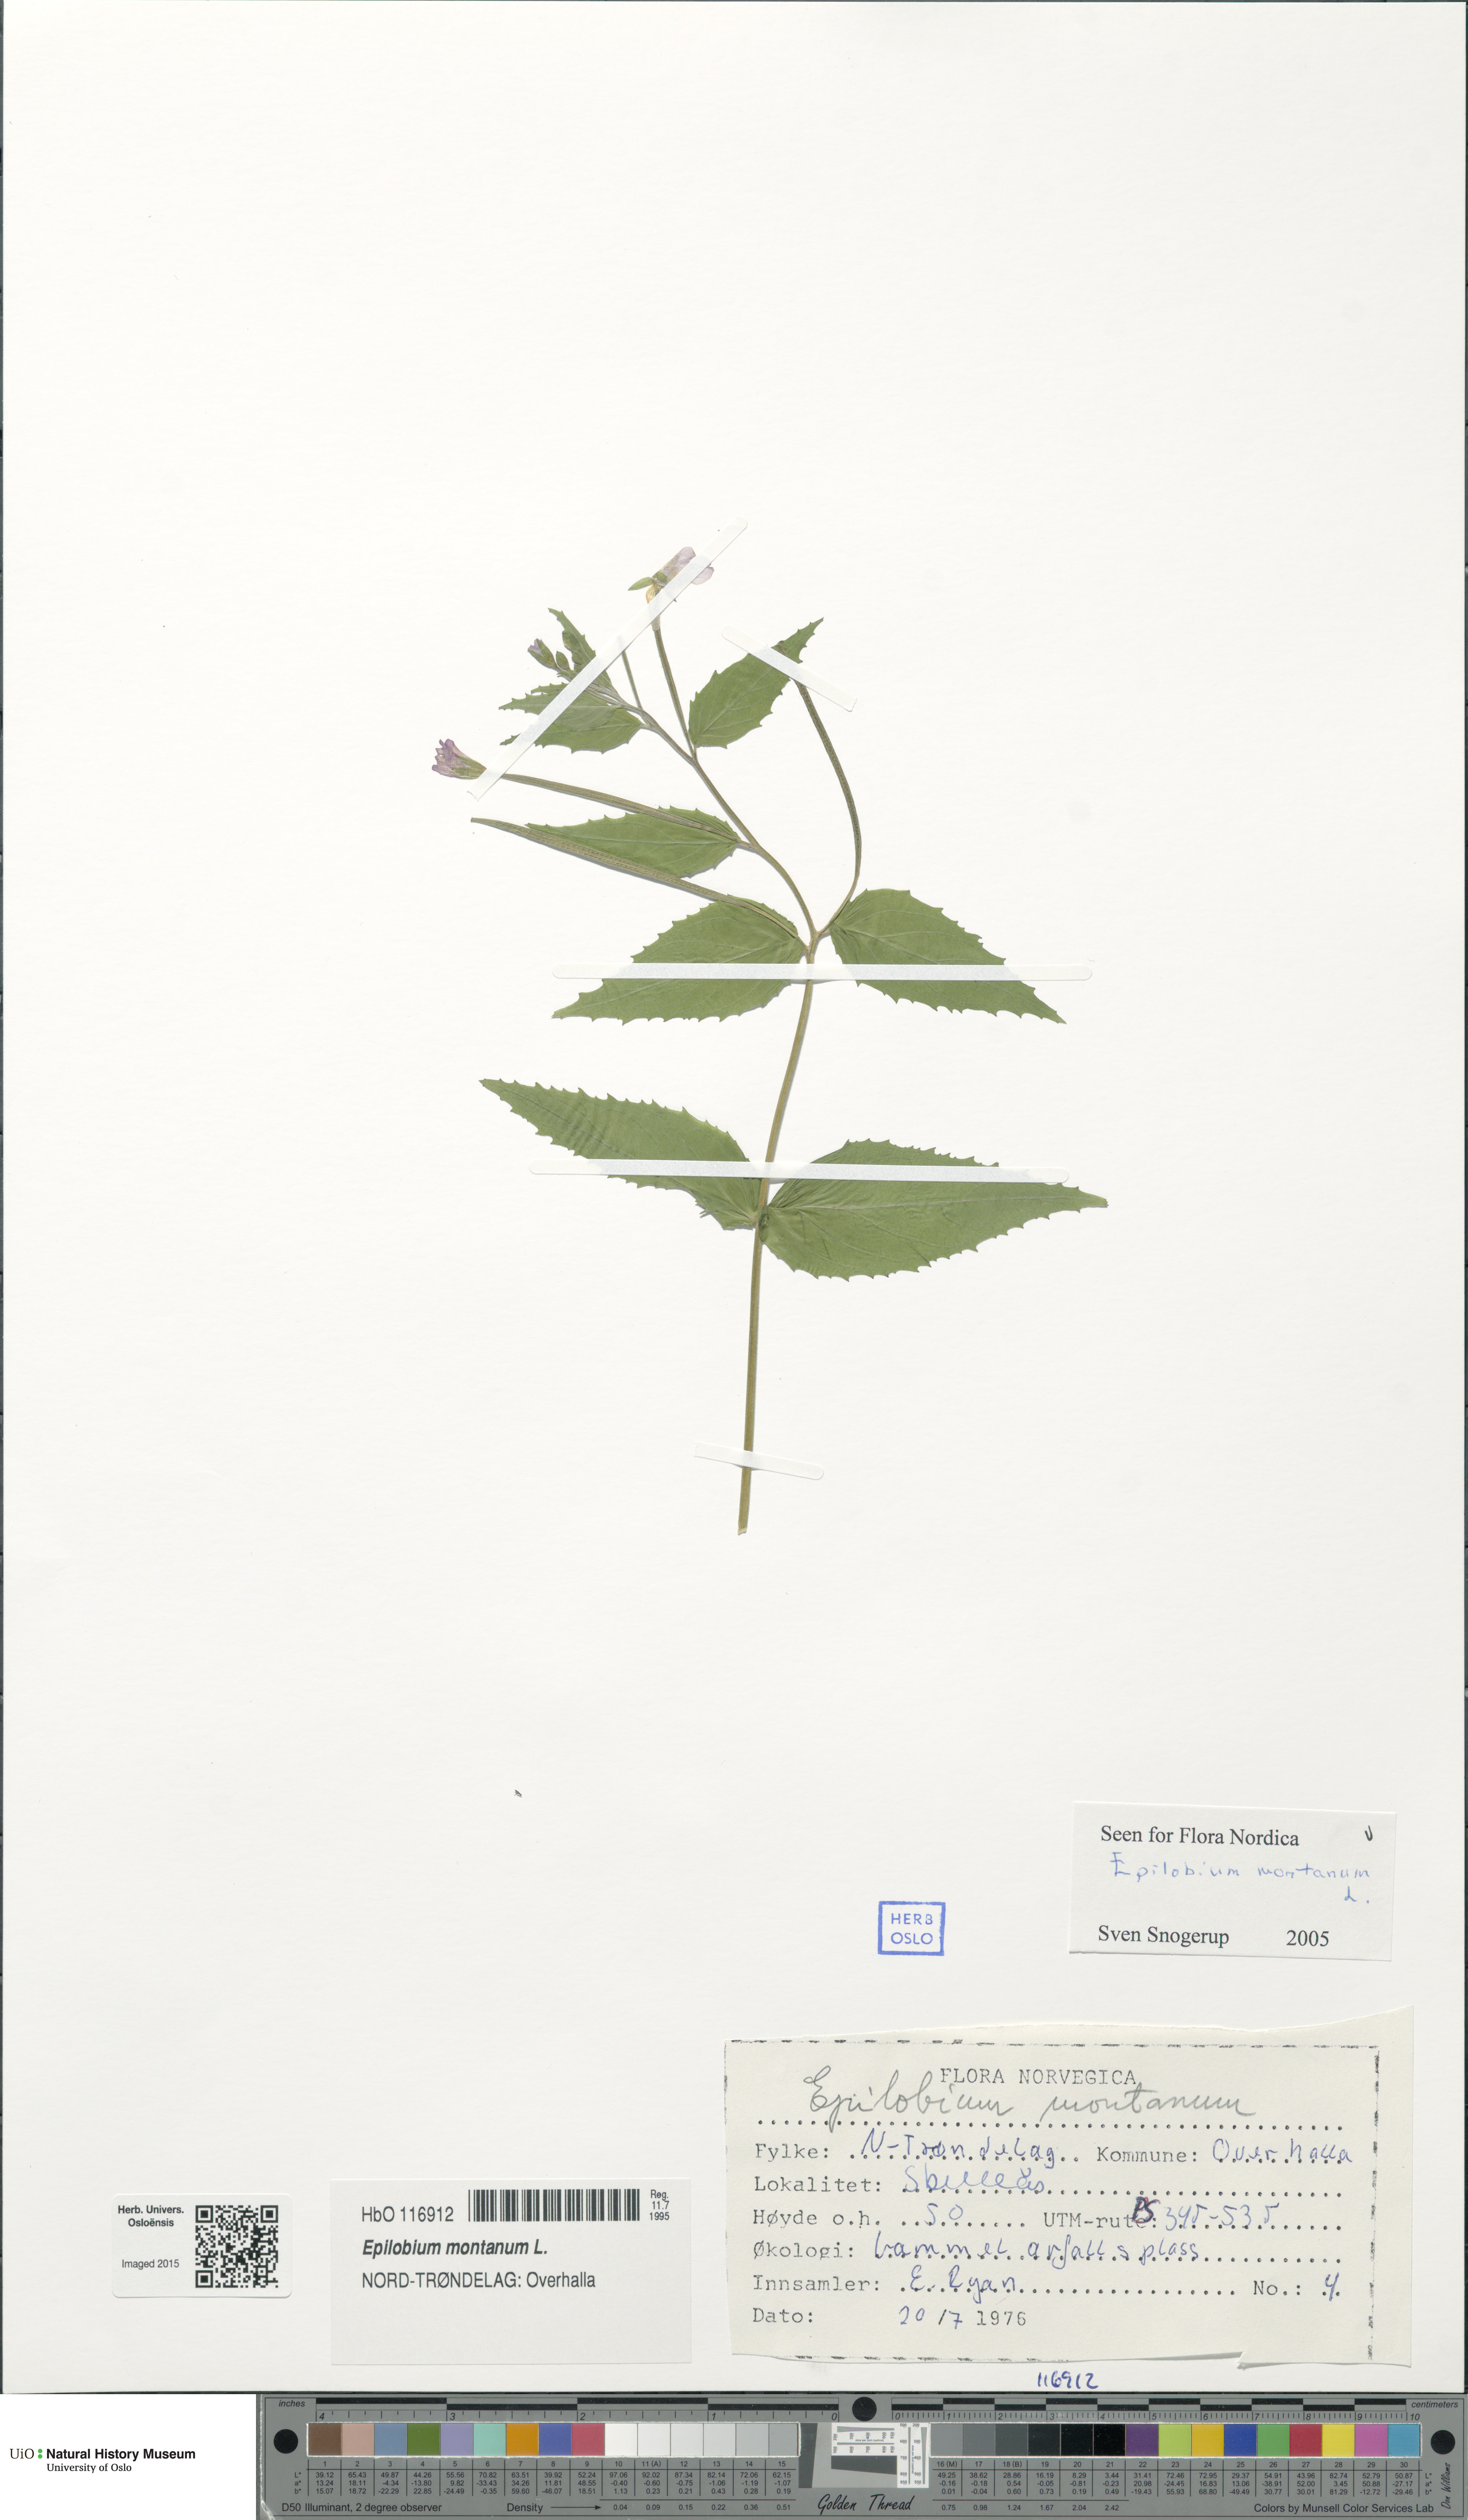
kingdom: Plantae
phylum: Tracheophyta
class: Magnoliopsida
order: Myrtales
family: Onagraceae
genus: Epilobium
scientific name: Epilobium montanum
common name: Broad-leaved willowherb
